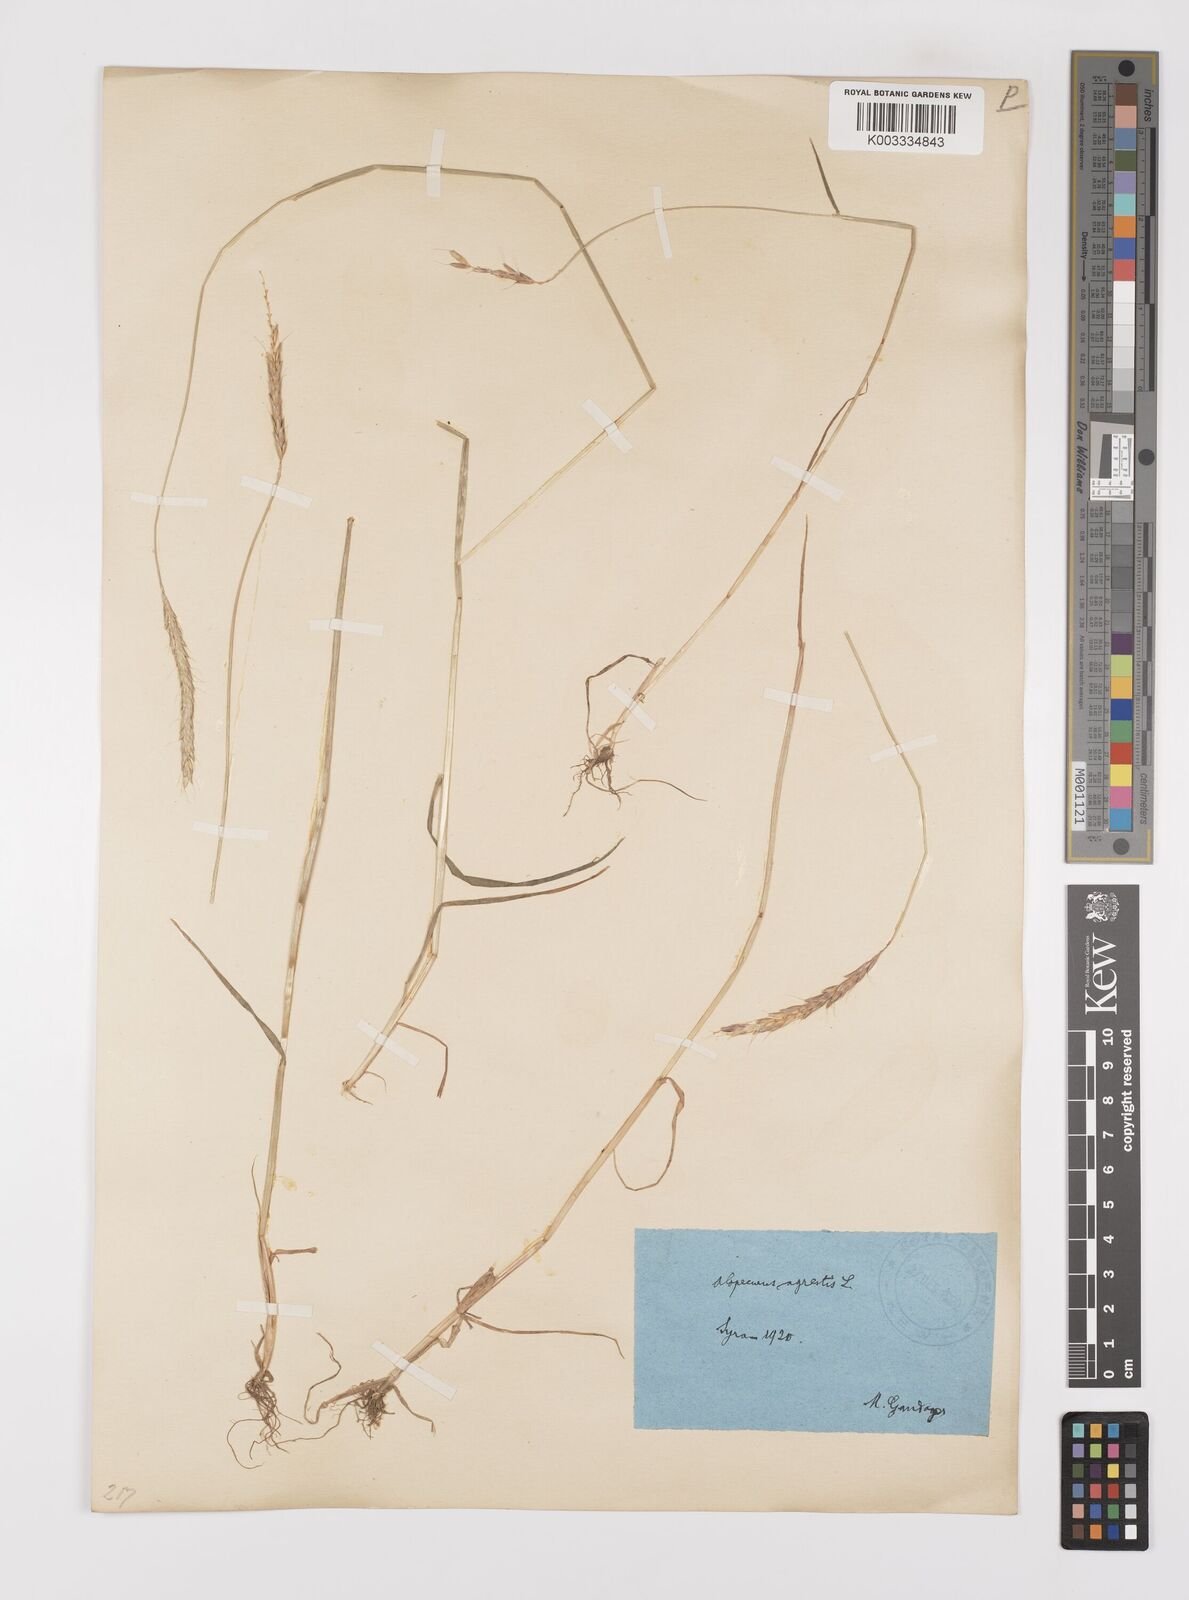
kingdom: Plantae
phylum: Tracheophyta
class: Liliopsida
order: Poales
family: Poaceae
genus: Alopecurus
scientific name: Alopecurus myosuroides
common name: Black-grass
